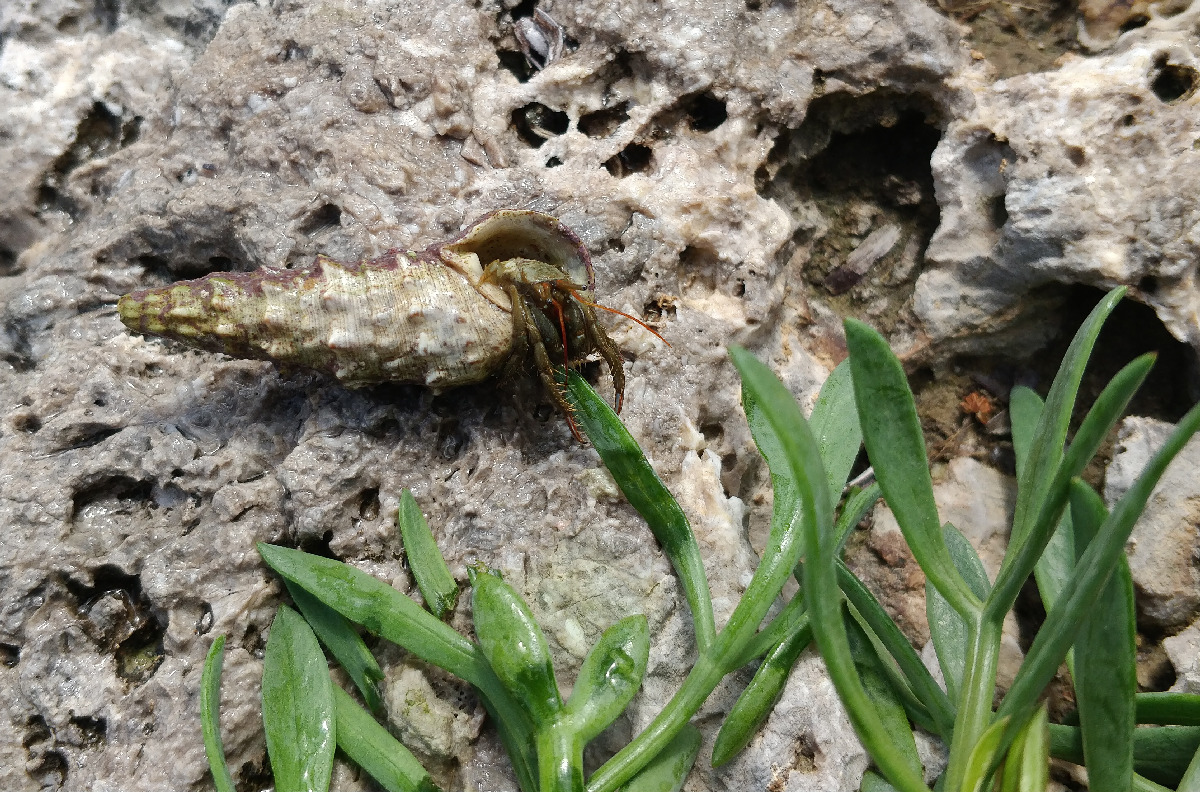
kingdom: Animalia
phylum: Arthropoda
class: Malacostraca
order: Decapoda
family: Diogenidae
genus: Clibanarius
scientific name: Clibanarius erythropus
